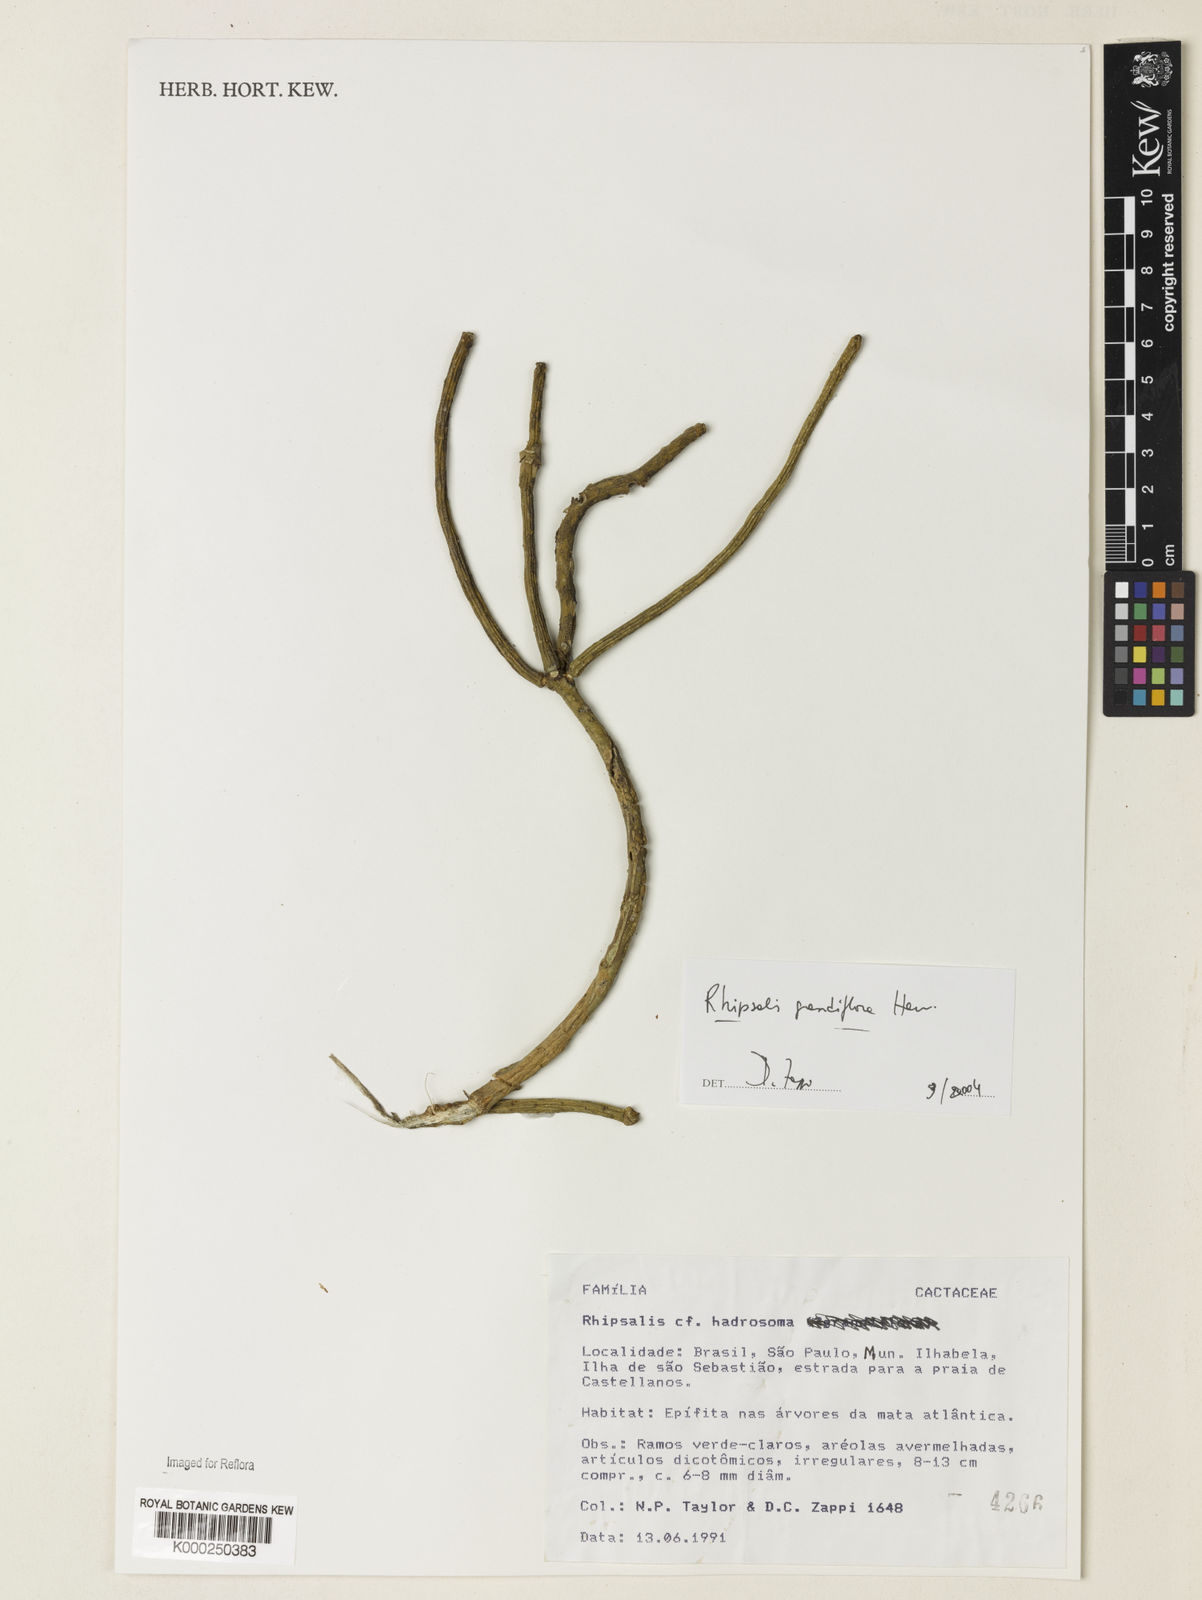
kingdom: Plantae
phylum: Tracheophyta
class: Magnoliopsida
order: Caryophyllales
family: Cactaceae
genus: Rhipsalis
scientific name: Rhipsalis
